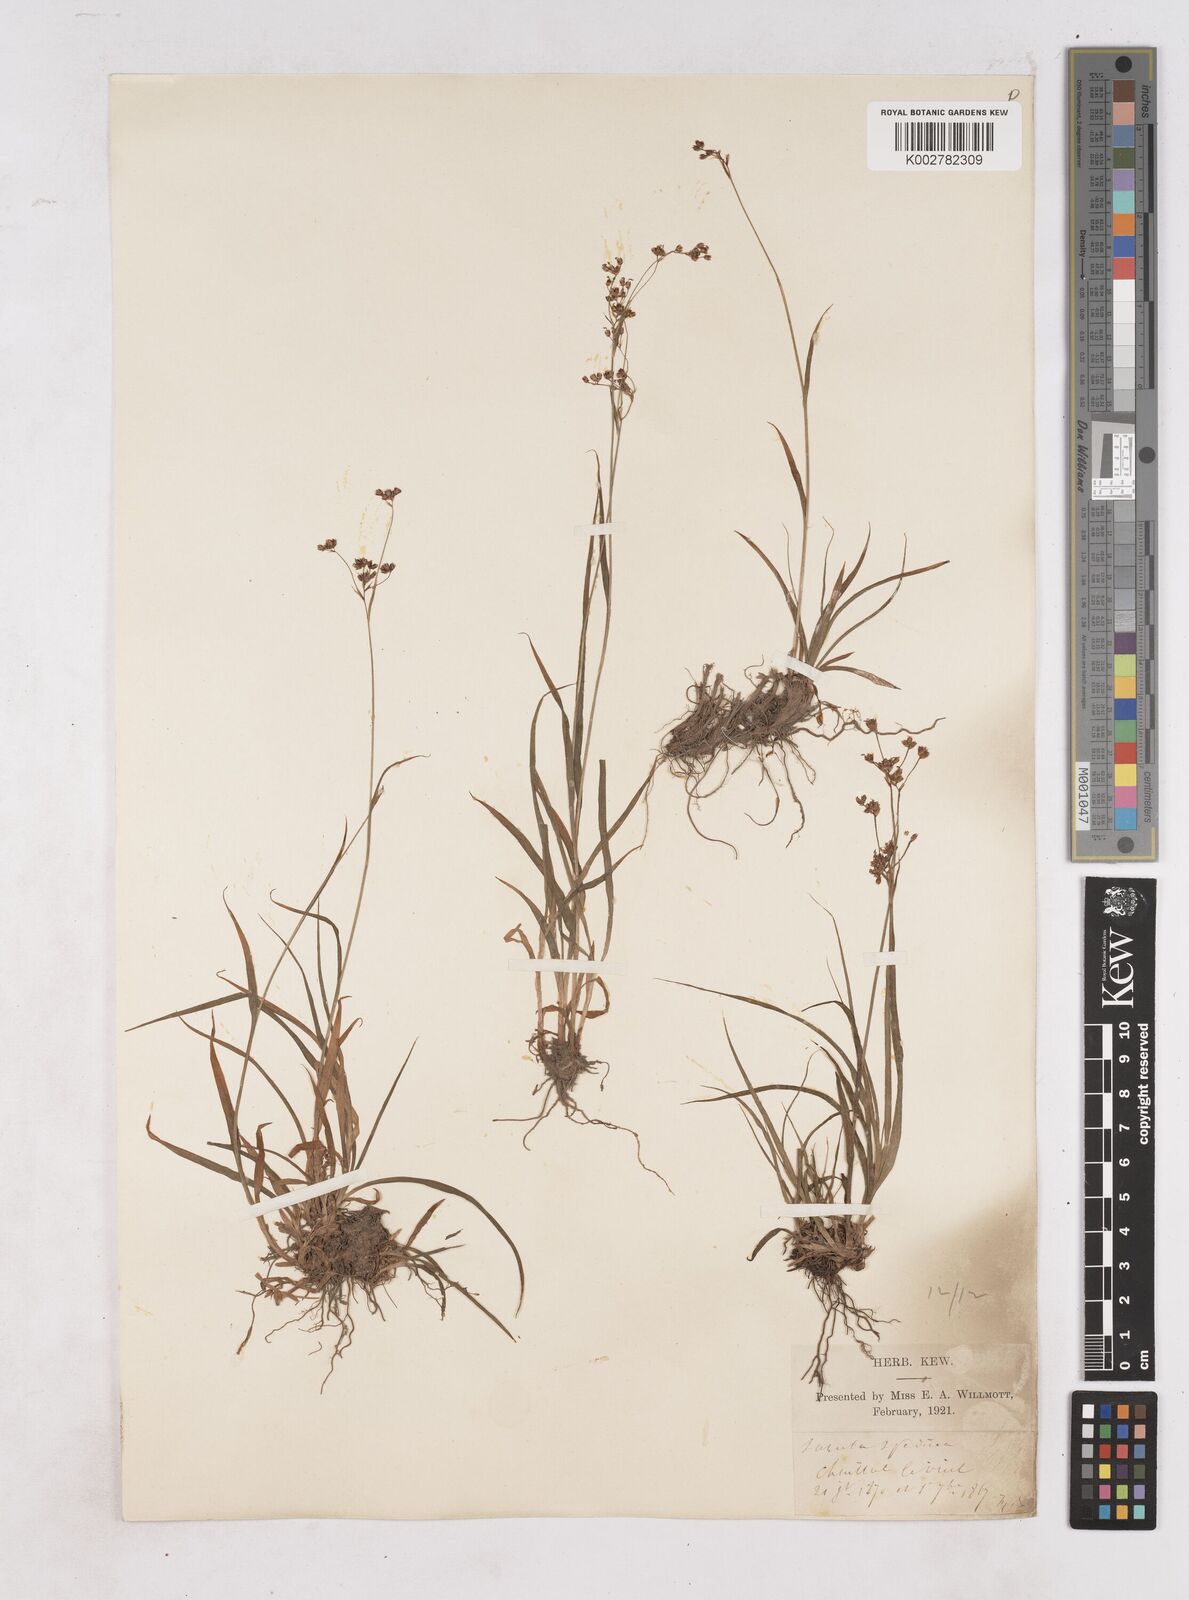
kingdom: Plantae
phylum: Tracheophyta
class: Liliopsida
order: Poales
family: Juncaceae
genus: Luzula
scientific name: Luzula alpinopilosa
